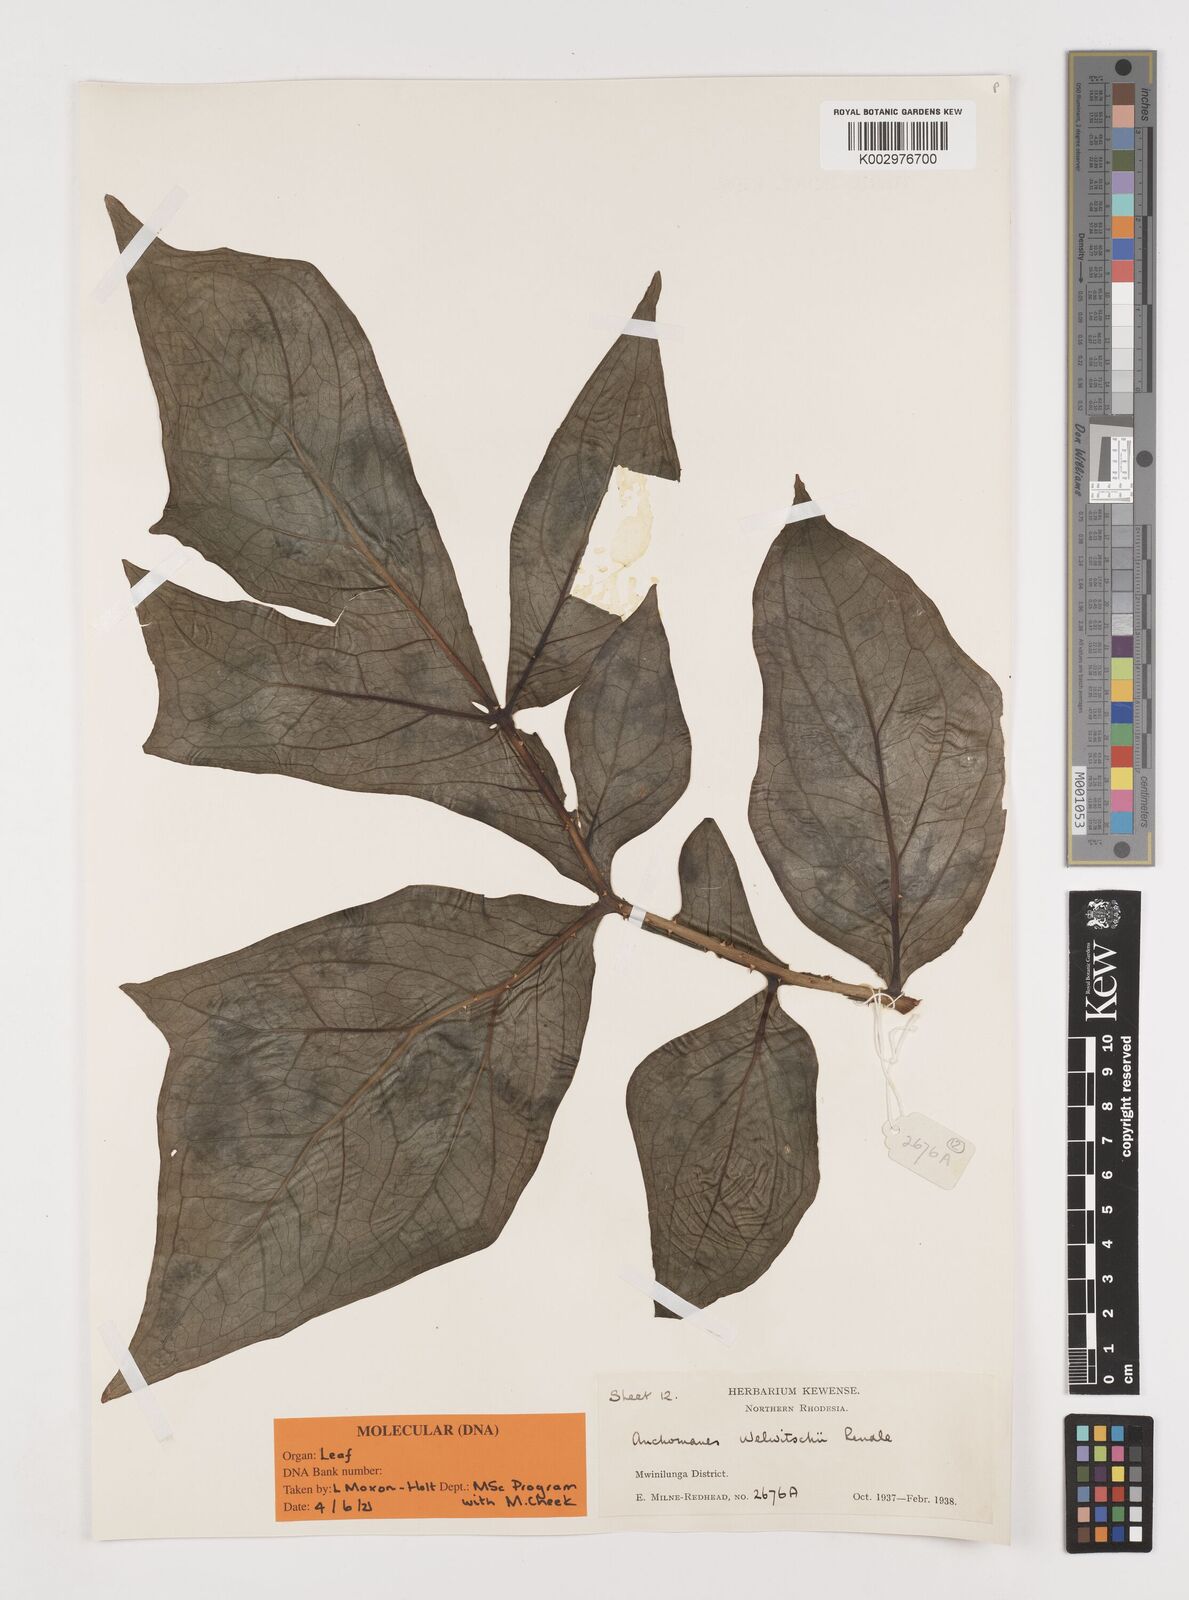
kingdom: Plantae
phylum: Tracheophyta
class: Liliopsida
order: Alismatales
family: Araceae
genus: Anchomanes
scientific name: Anchomanes difformis
